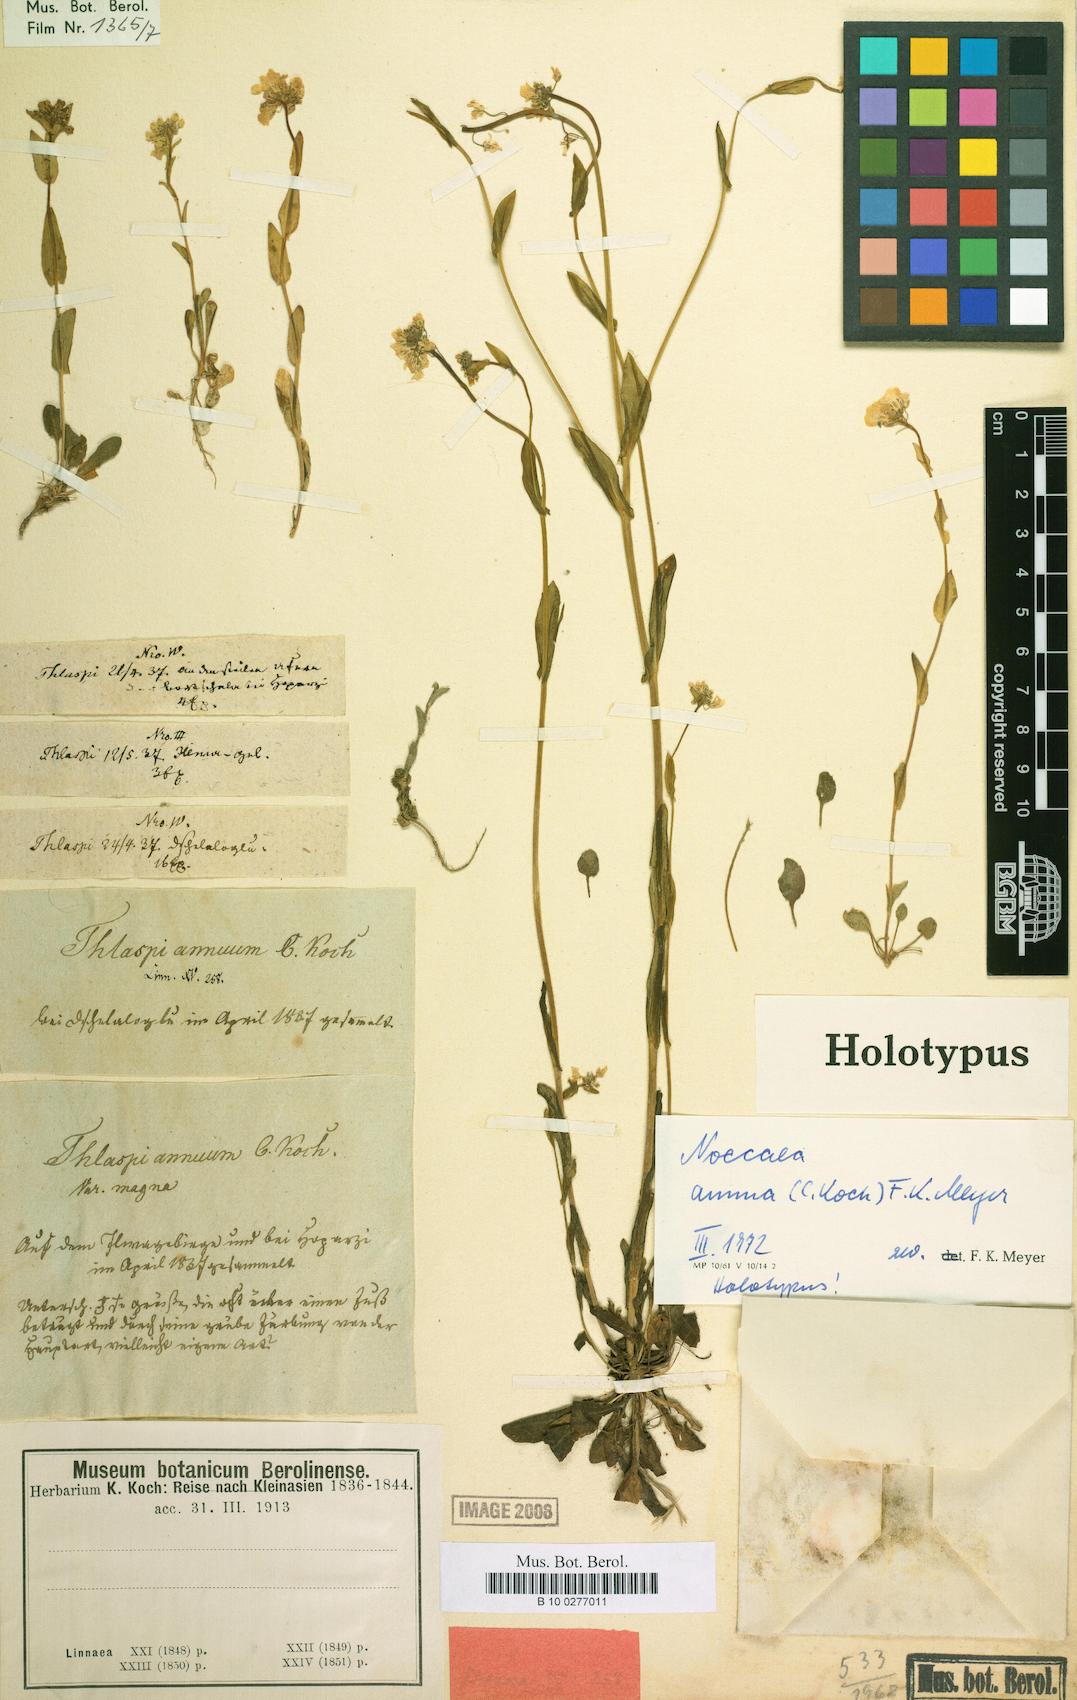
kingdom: Plantae
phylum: Tracheophyta
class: Magnoliopsida
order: Brassicales
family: Brassicaceae
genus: Thlaspi
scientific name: Thlaspi
